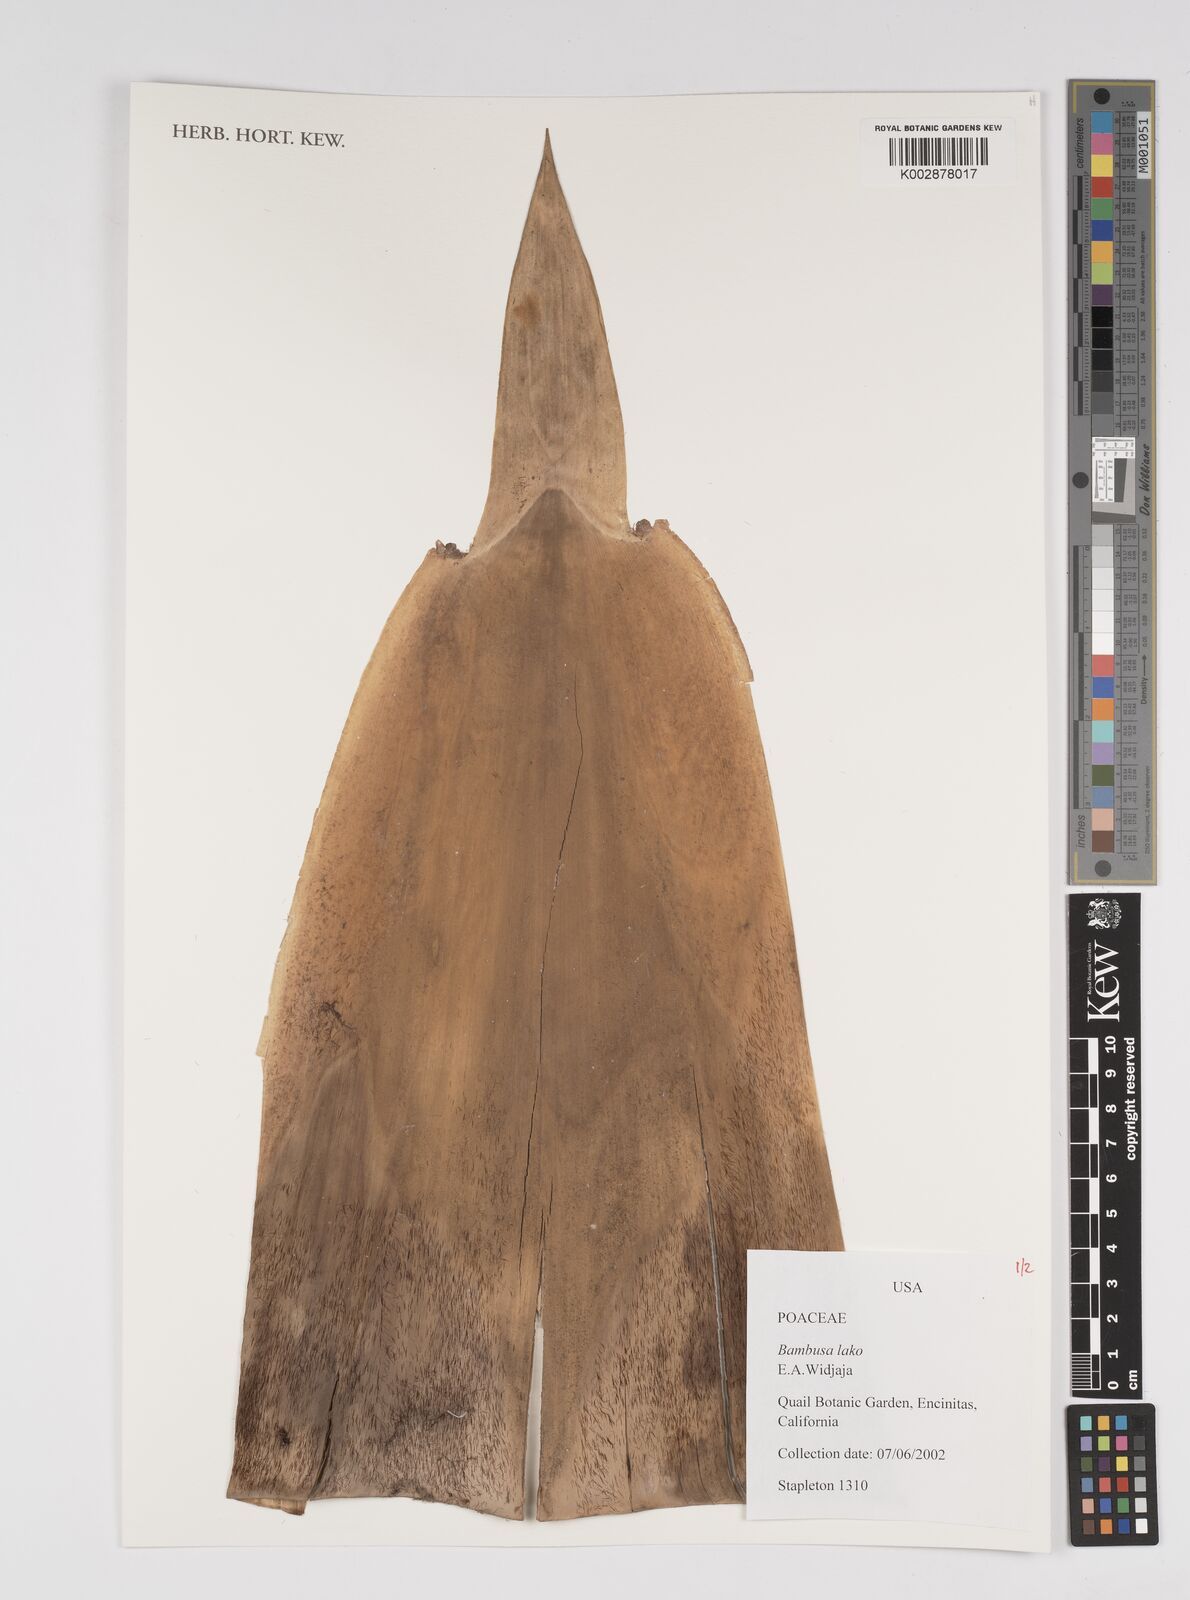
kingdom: Plantae
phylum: Tracheophyta
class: Liliopsida
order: Poales
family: Poaceae
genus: Bambusa
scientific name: Bambusa lako
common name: Timor black bamboo
